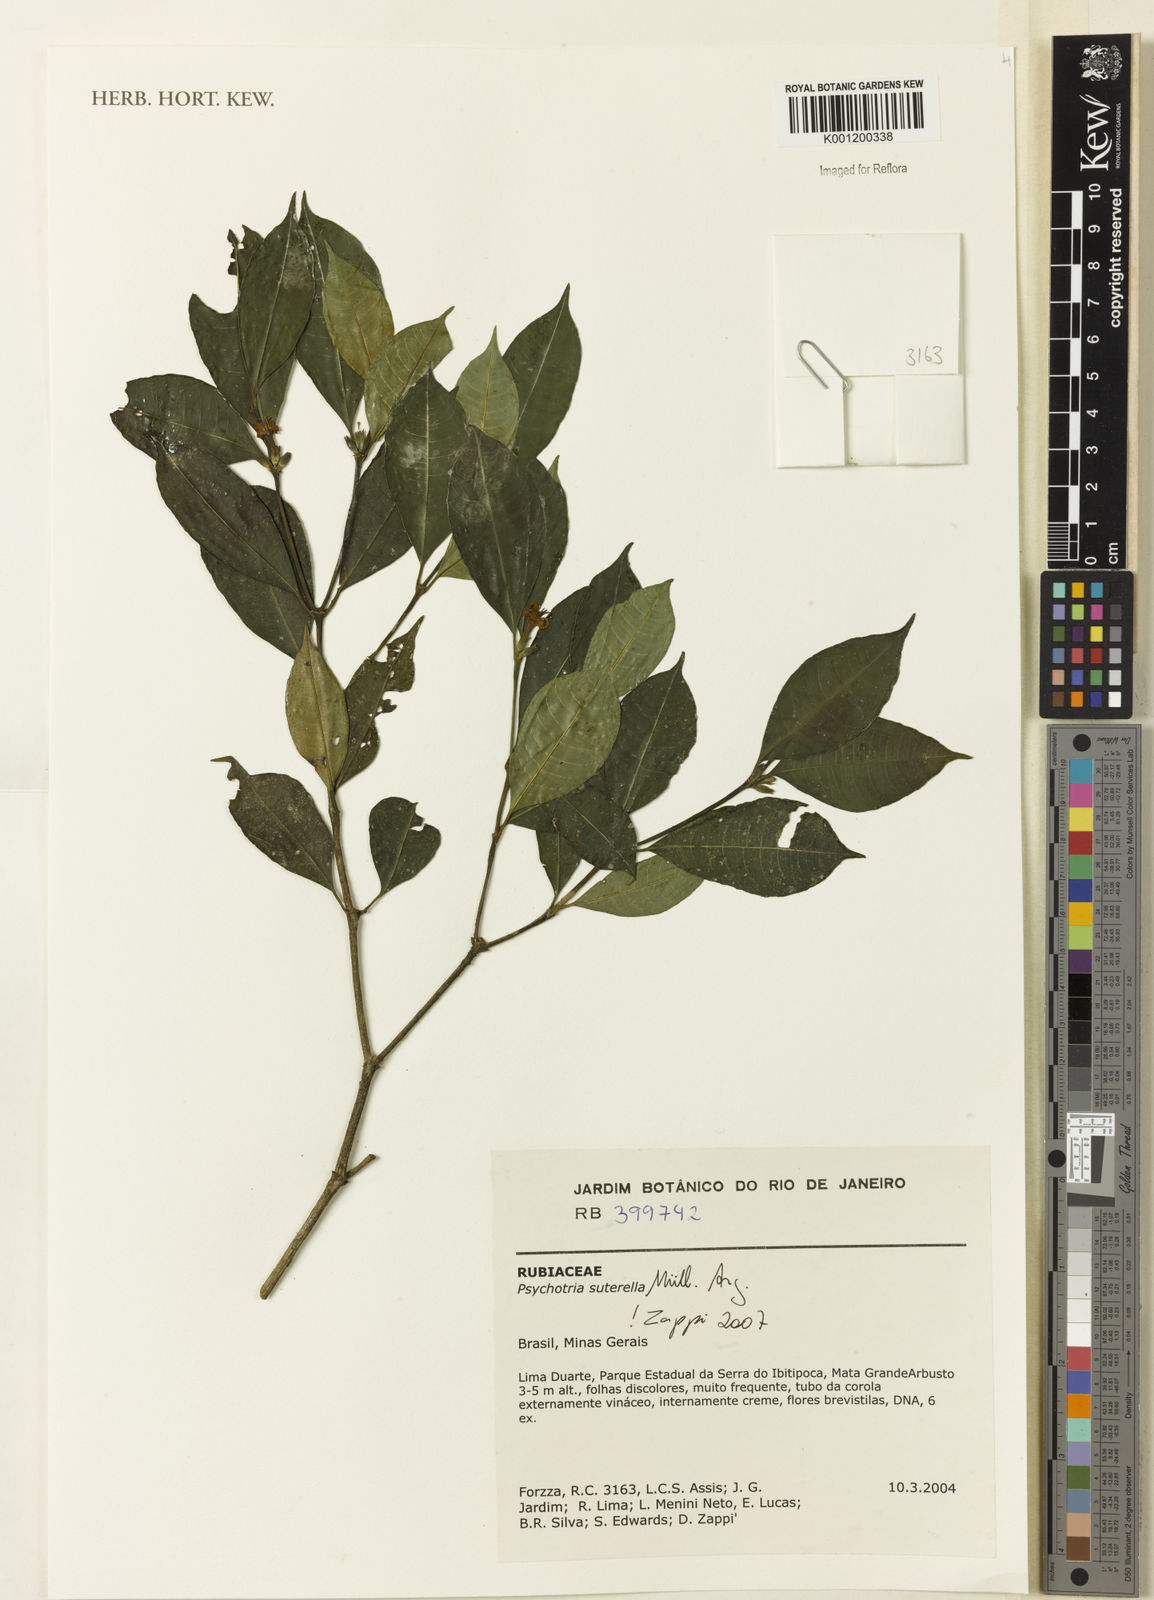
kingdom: Plantae
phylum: Tracheophyta
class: Magnoliopsida
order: Gentianales
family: Rubiaceae
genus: Psychotria
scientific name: Psychotria
